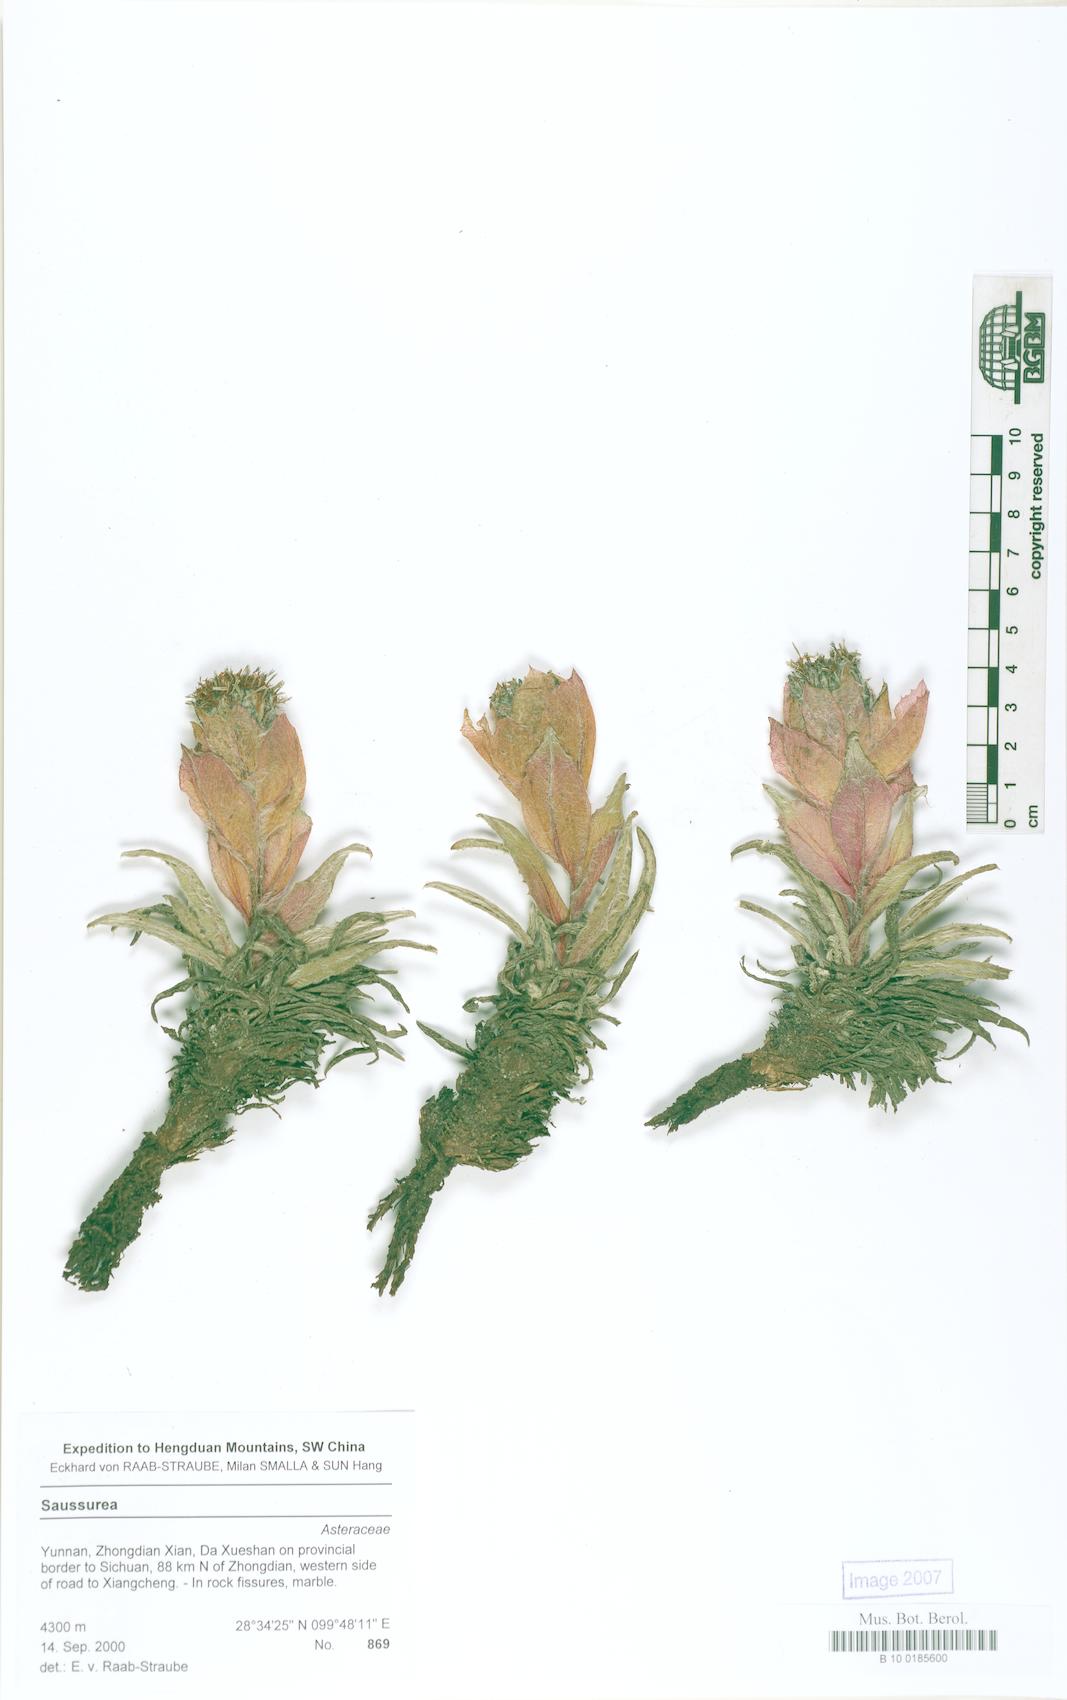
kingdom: Plantae
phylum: Tracheophyta
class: Magnoliopsida
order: Asterales
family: Asteraceae
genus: Saussurea
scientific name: Saussurea sunhangii
